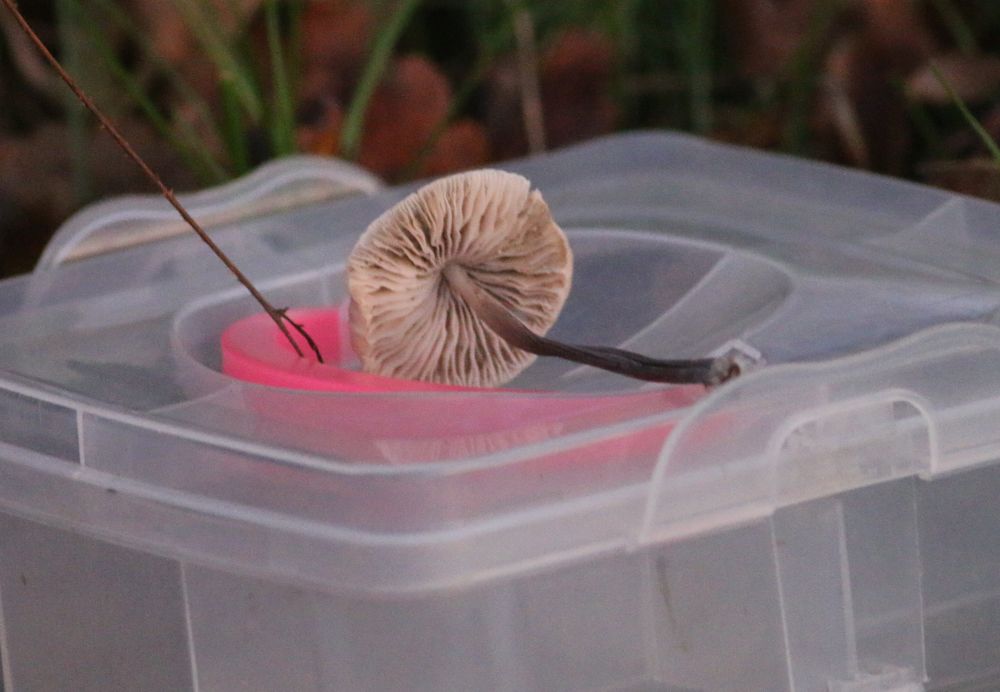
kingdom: Fungi
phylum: Basidiomycota
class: Agaricomycetes
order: Agaricales
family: Mycenaceae
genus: Mycena
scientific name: Mycena
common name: huesvamp
